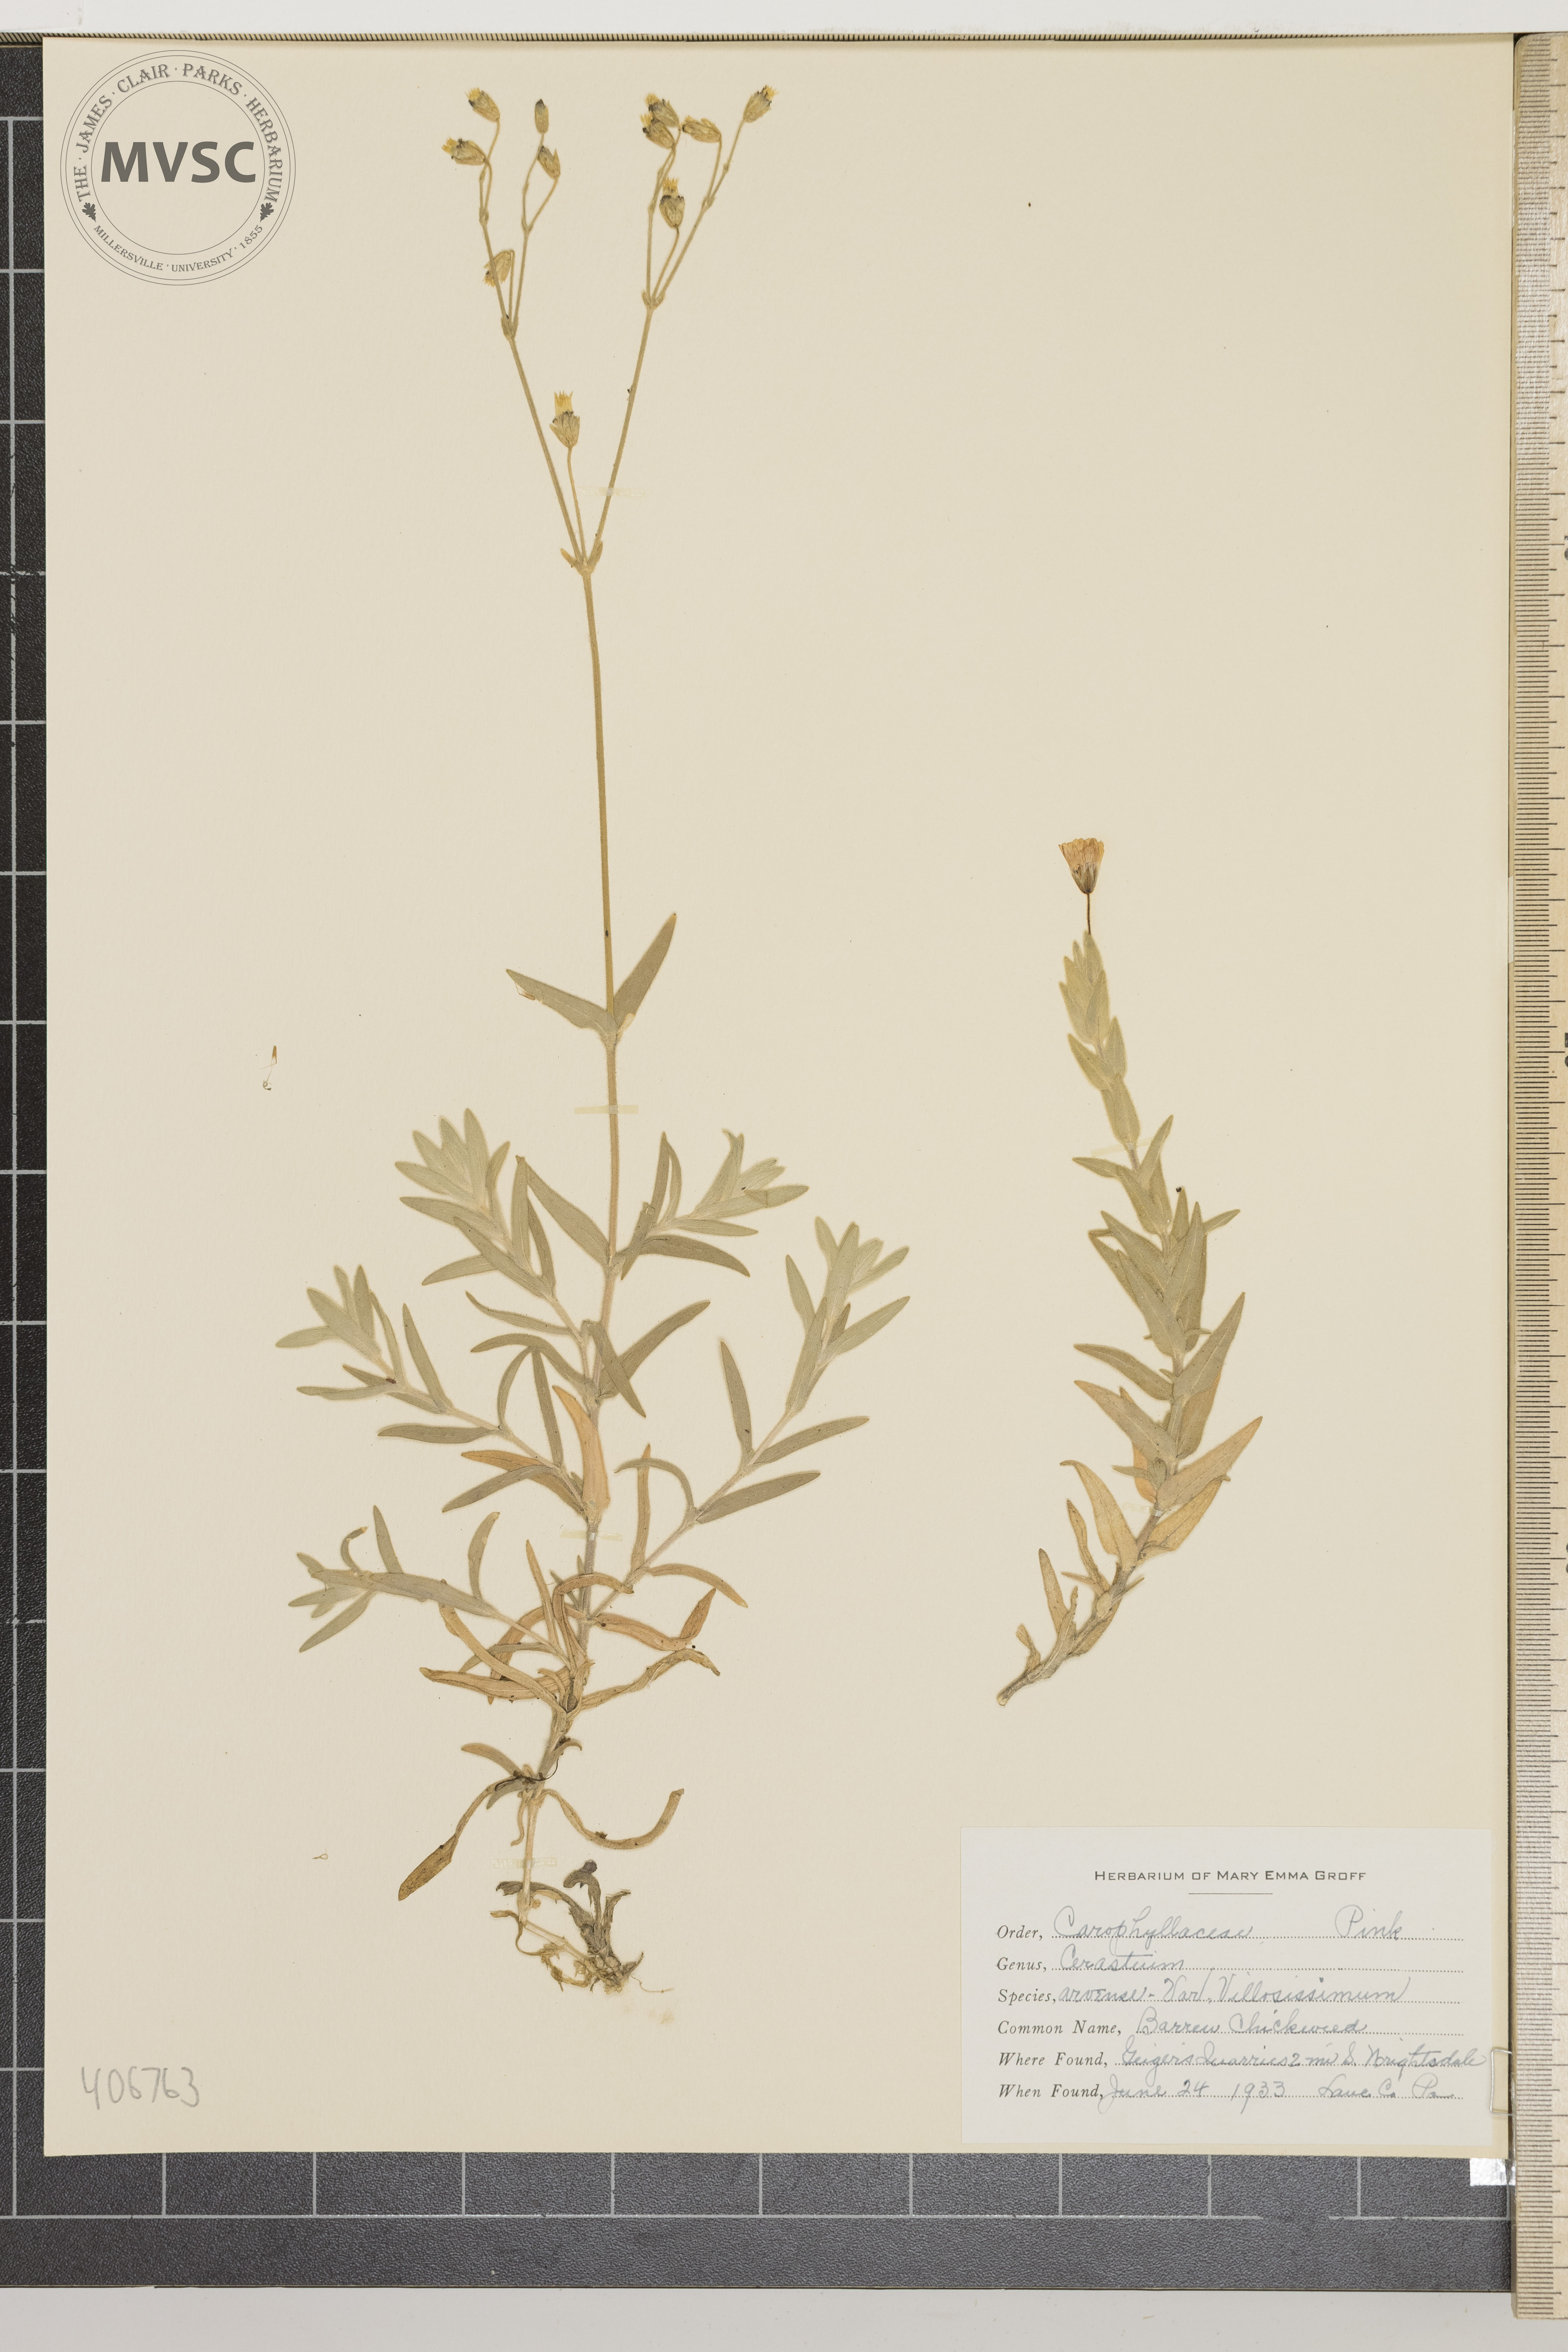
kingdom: Plantae
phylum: Tracheophyta
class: Magnoliopsida
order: Caryophyllales
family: Caryophyllaceae
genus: Cerastium
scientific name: Cerastium arvense
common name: Barren Chickweed
